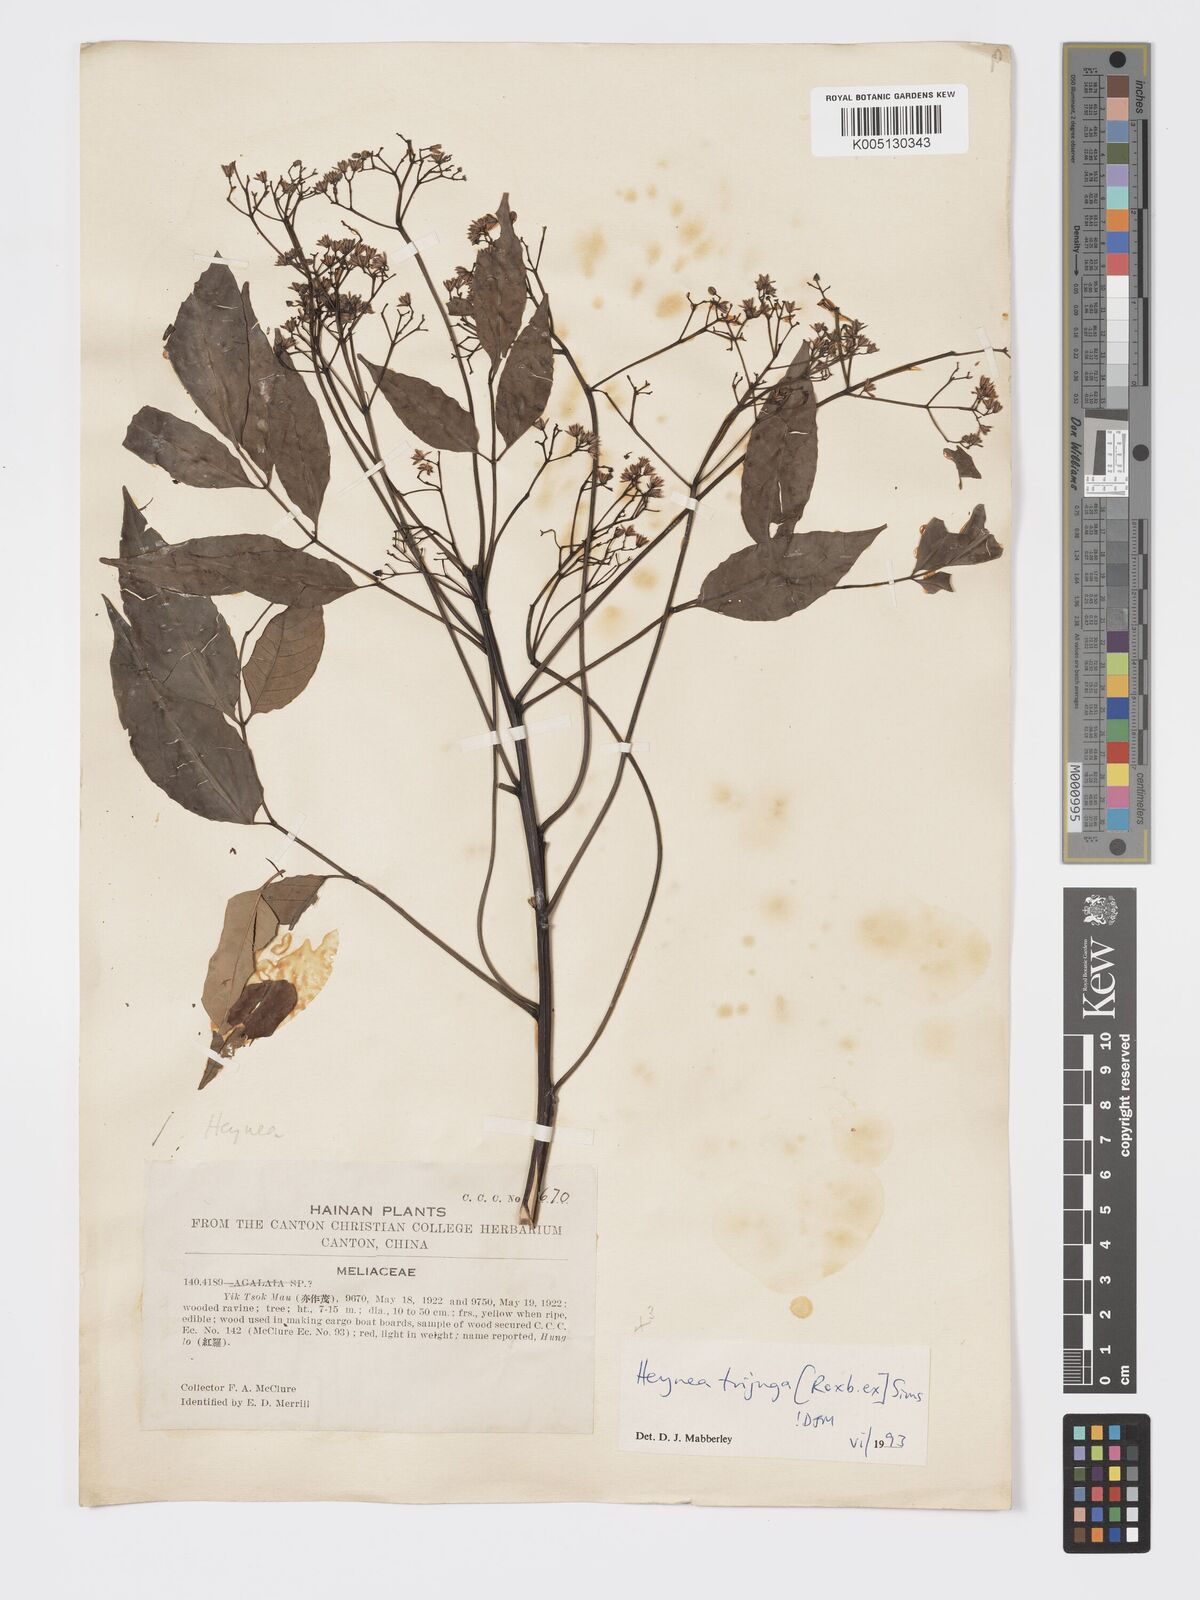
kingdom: Plantae
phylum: Tracheophyta
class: Magnoliopsida
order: Sapindales
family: Meliaceae
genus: Heynea
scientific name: Heynea trijuga
